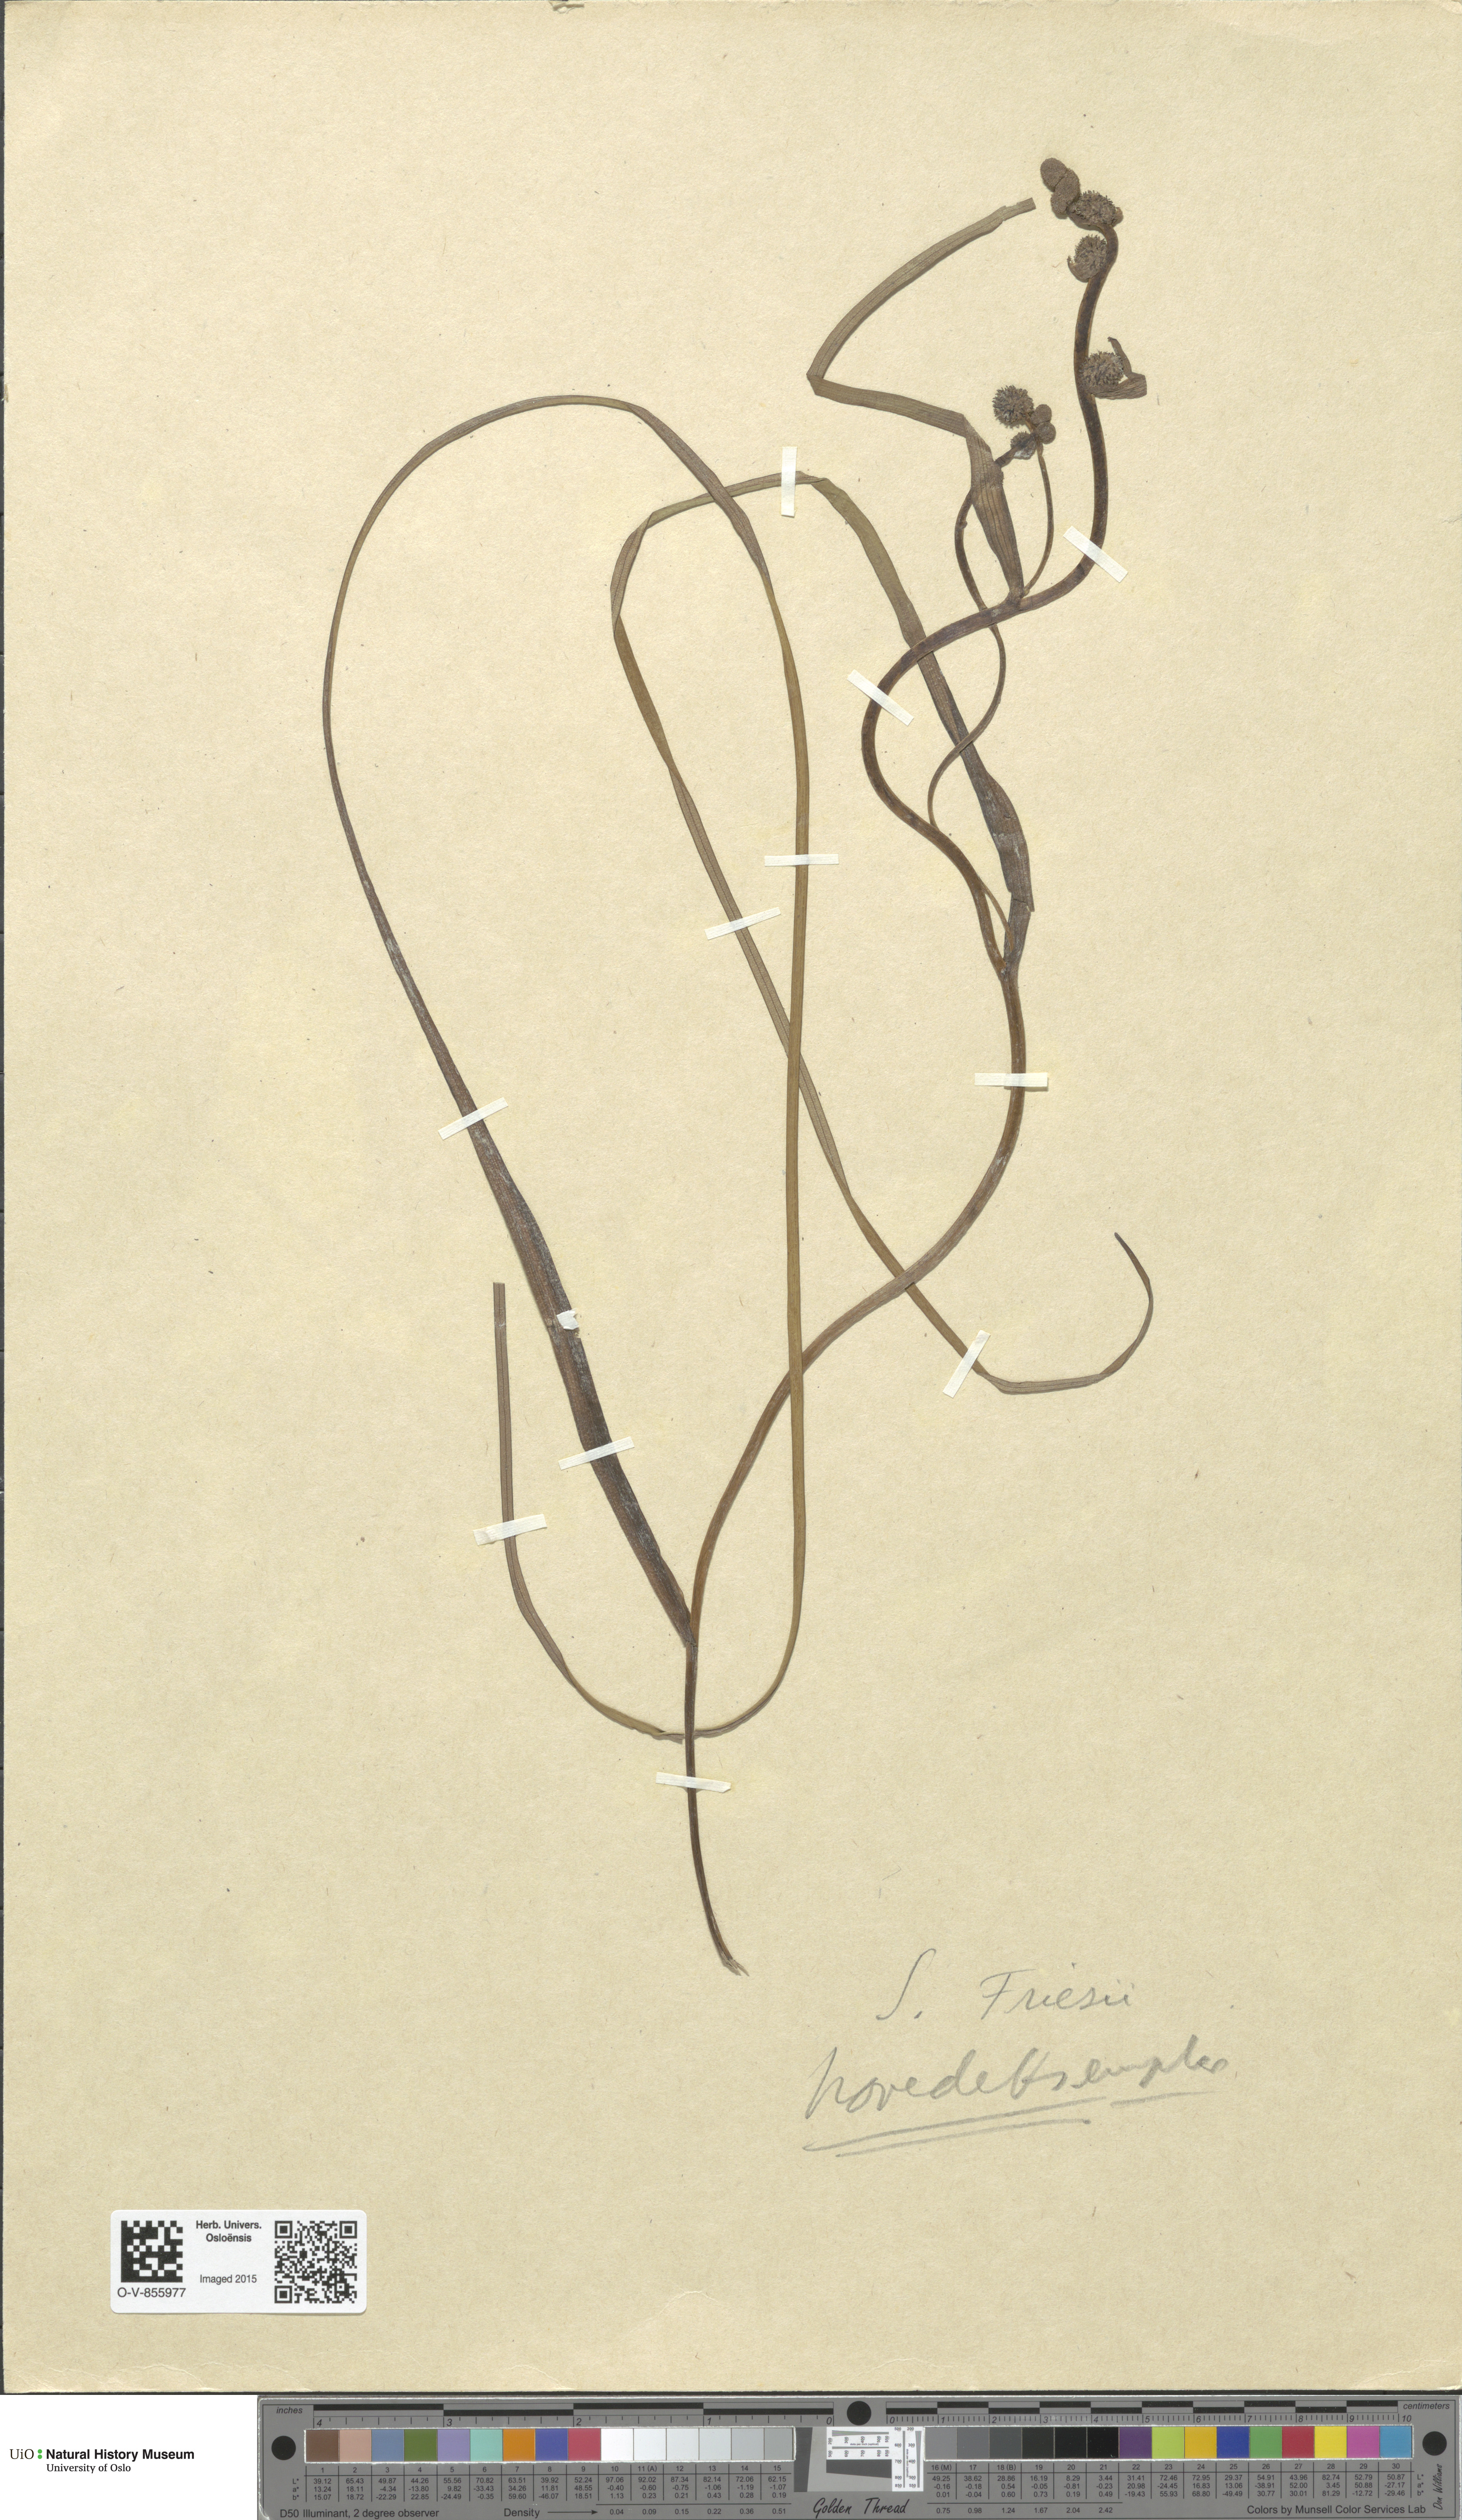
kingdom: Plantae
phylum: Tracheophyta
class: Liliopsida
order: Poales
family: Typhaceae
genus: Sparganium
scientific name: Sparganium gramineum
